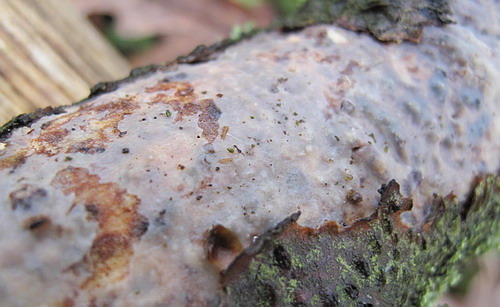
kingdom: Fungi
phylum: Basidiomycota
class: Agaricomycetes
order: Corticiales
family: Vuilleminiaceae
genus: Vuilleminia
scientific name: Vuilleminia comedens
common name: almindelig barksprænger
